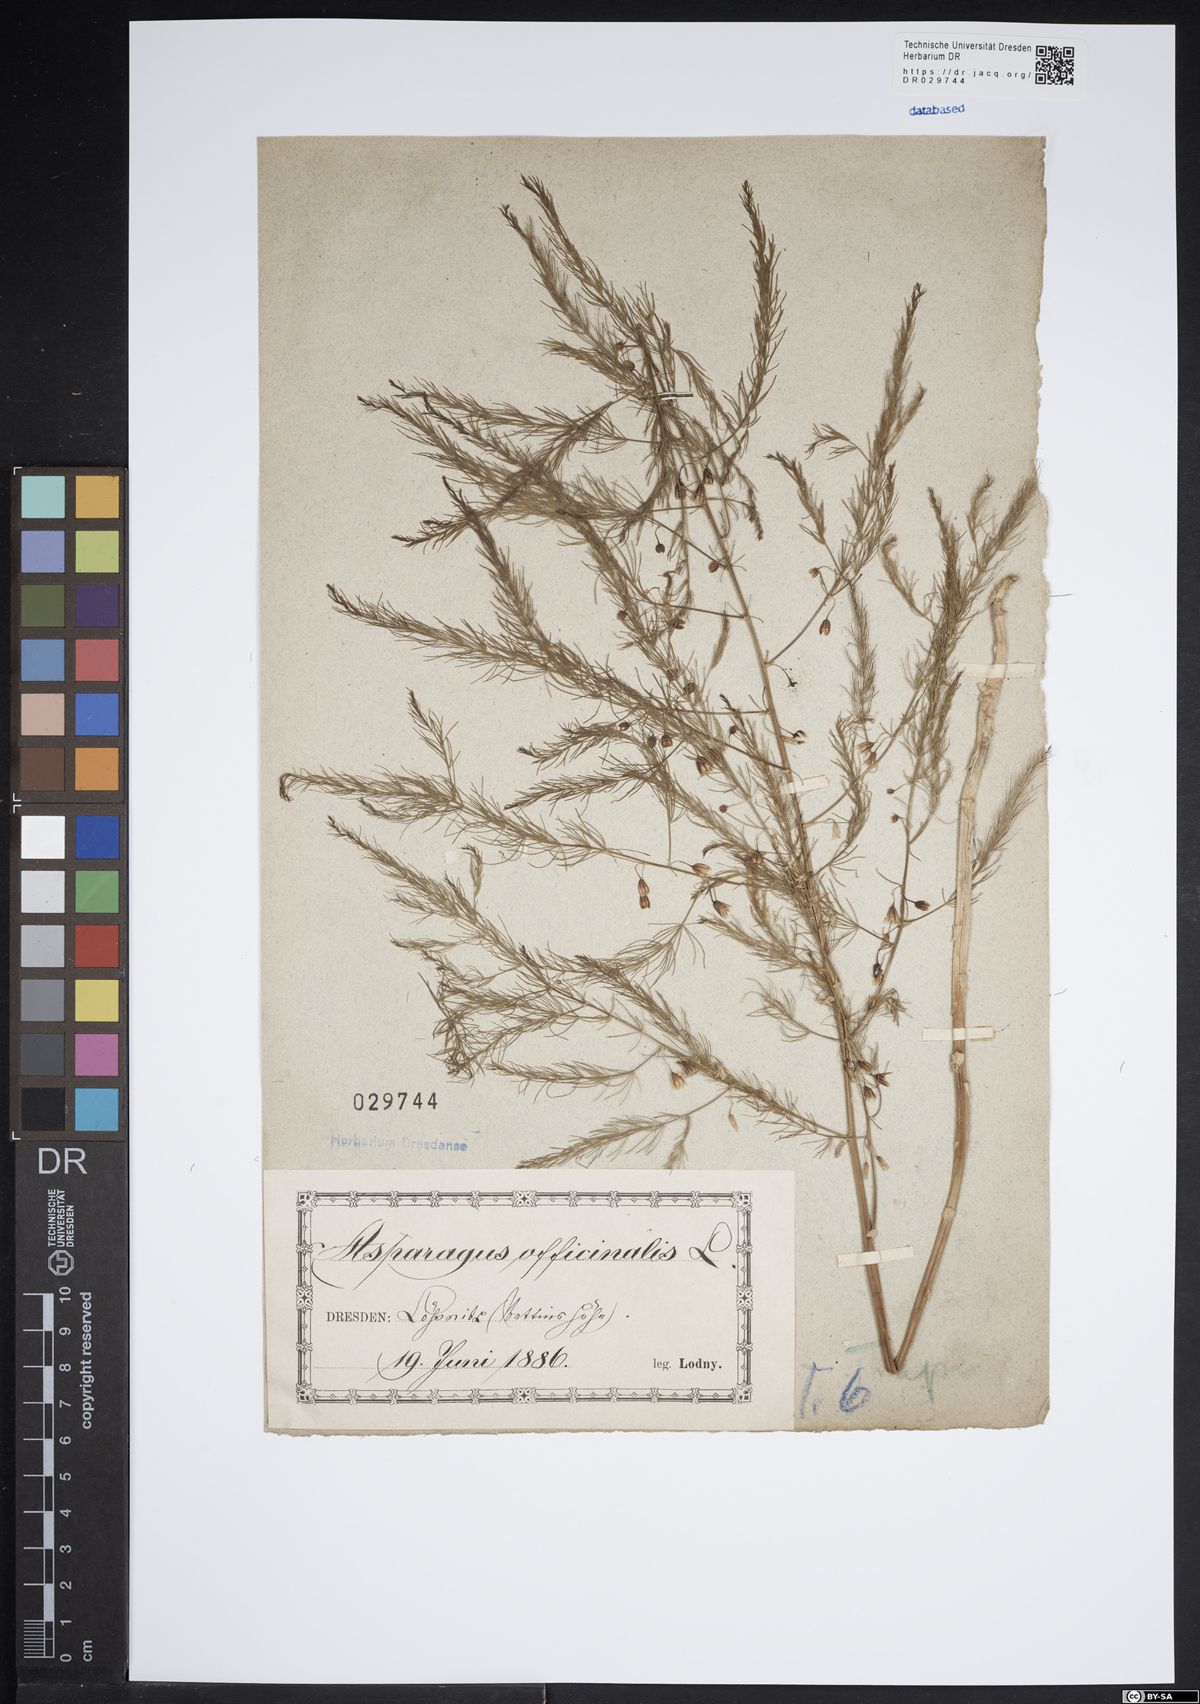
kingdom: Plantae
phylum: Tracheophyta
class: Liliopsida
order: Asparagales
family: Asparagaceae
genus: Asparagus
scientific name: Asparagus officinalis
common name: Garden asparagus
